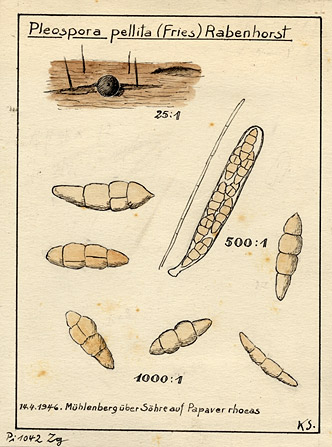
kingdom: Fungi
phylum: Ascomycota
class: Dothideomycetes
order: Pleosporales
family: Pleosporaceae
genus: Pyrenophora
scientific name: Pyrenophora pellita
